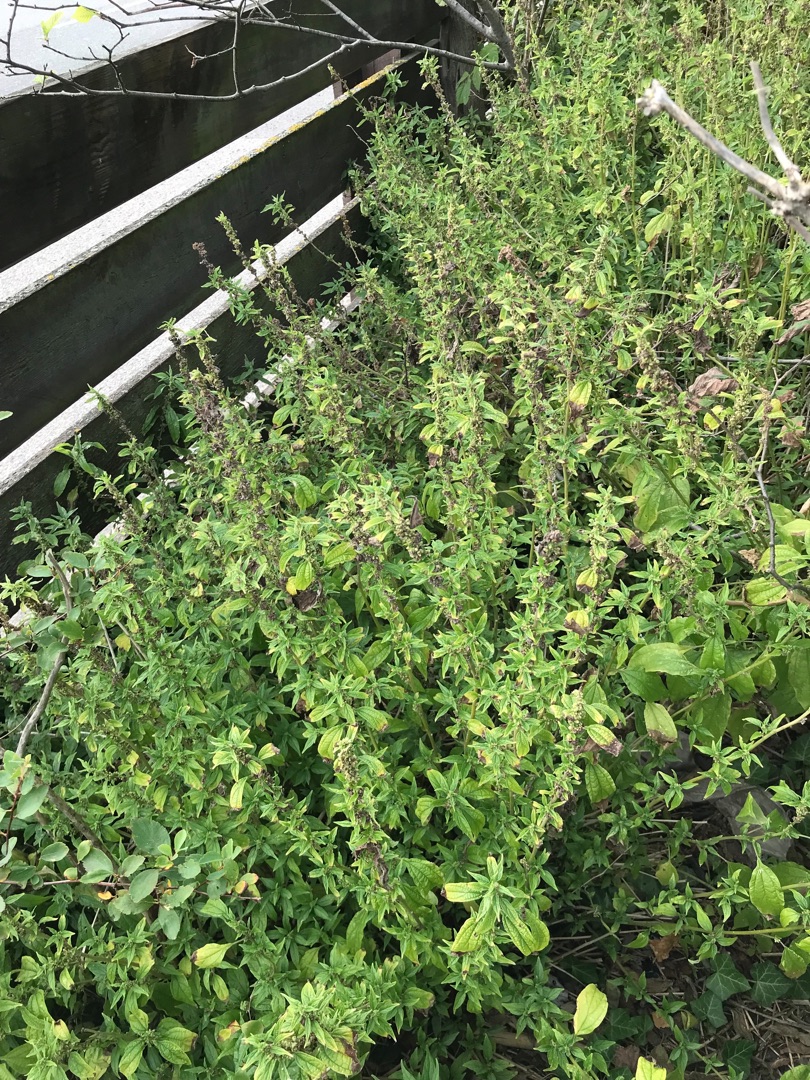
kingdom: Plantae
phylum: Tracheophyta
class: Magnoliopsida
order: Rosales
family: Urticaceae
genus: Parietaria
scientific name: Parietaria officinalis
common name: Almindelig springknap
